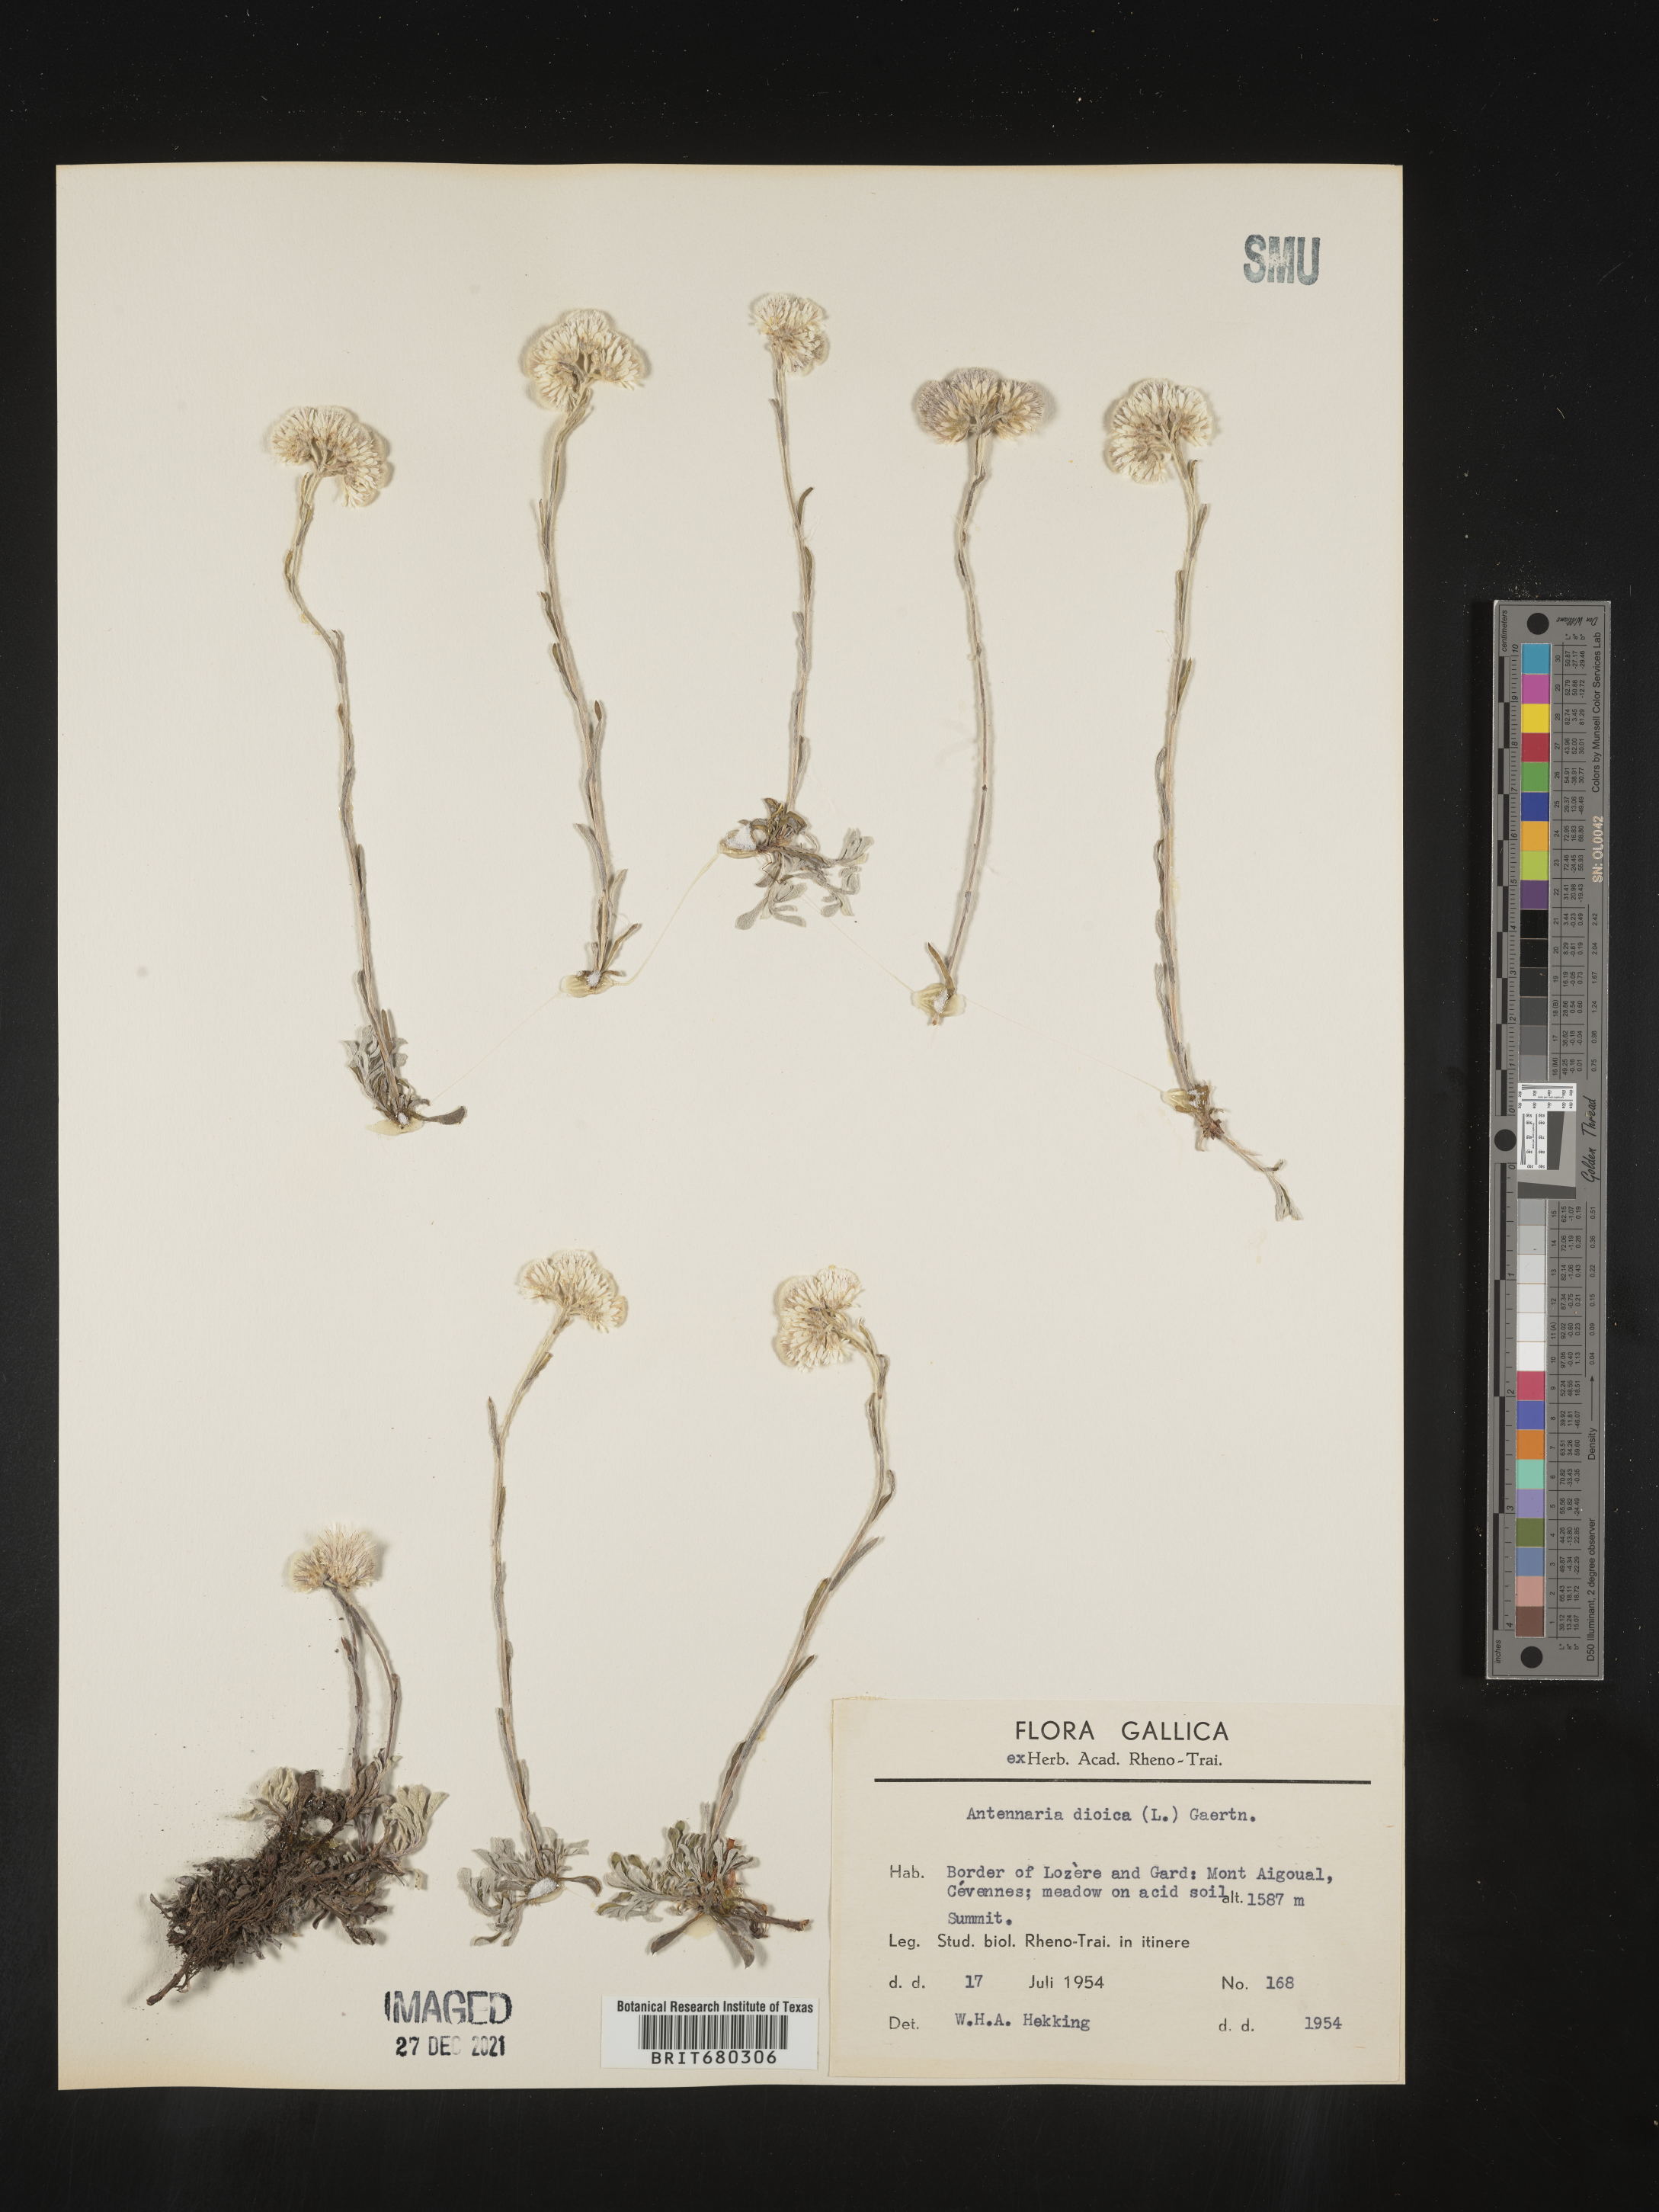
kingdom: Plantae
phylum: Tracheophyta
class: Magnoliopsida
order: Asterales
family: Asteraceae
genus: Antennaria
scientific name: Antennaria dioica
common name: Mountain everlasting
